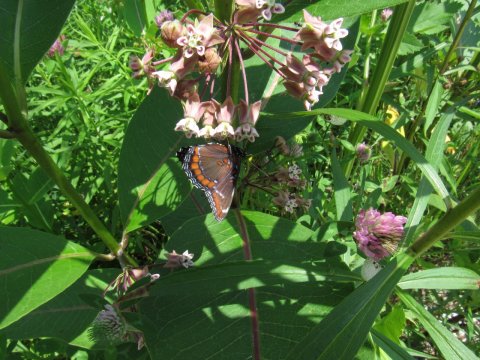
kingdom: Animalia
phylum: Arthropoda
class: Insecta
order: Lepidoptera
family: Nymphalidae
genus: Limenitis
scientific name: Limenitis arthemis
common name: Red-spotted Admiral
